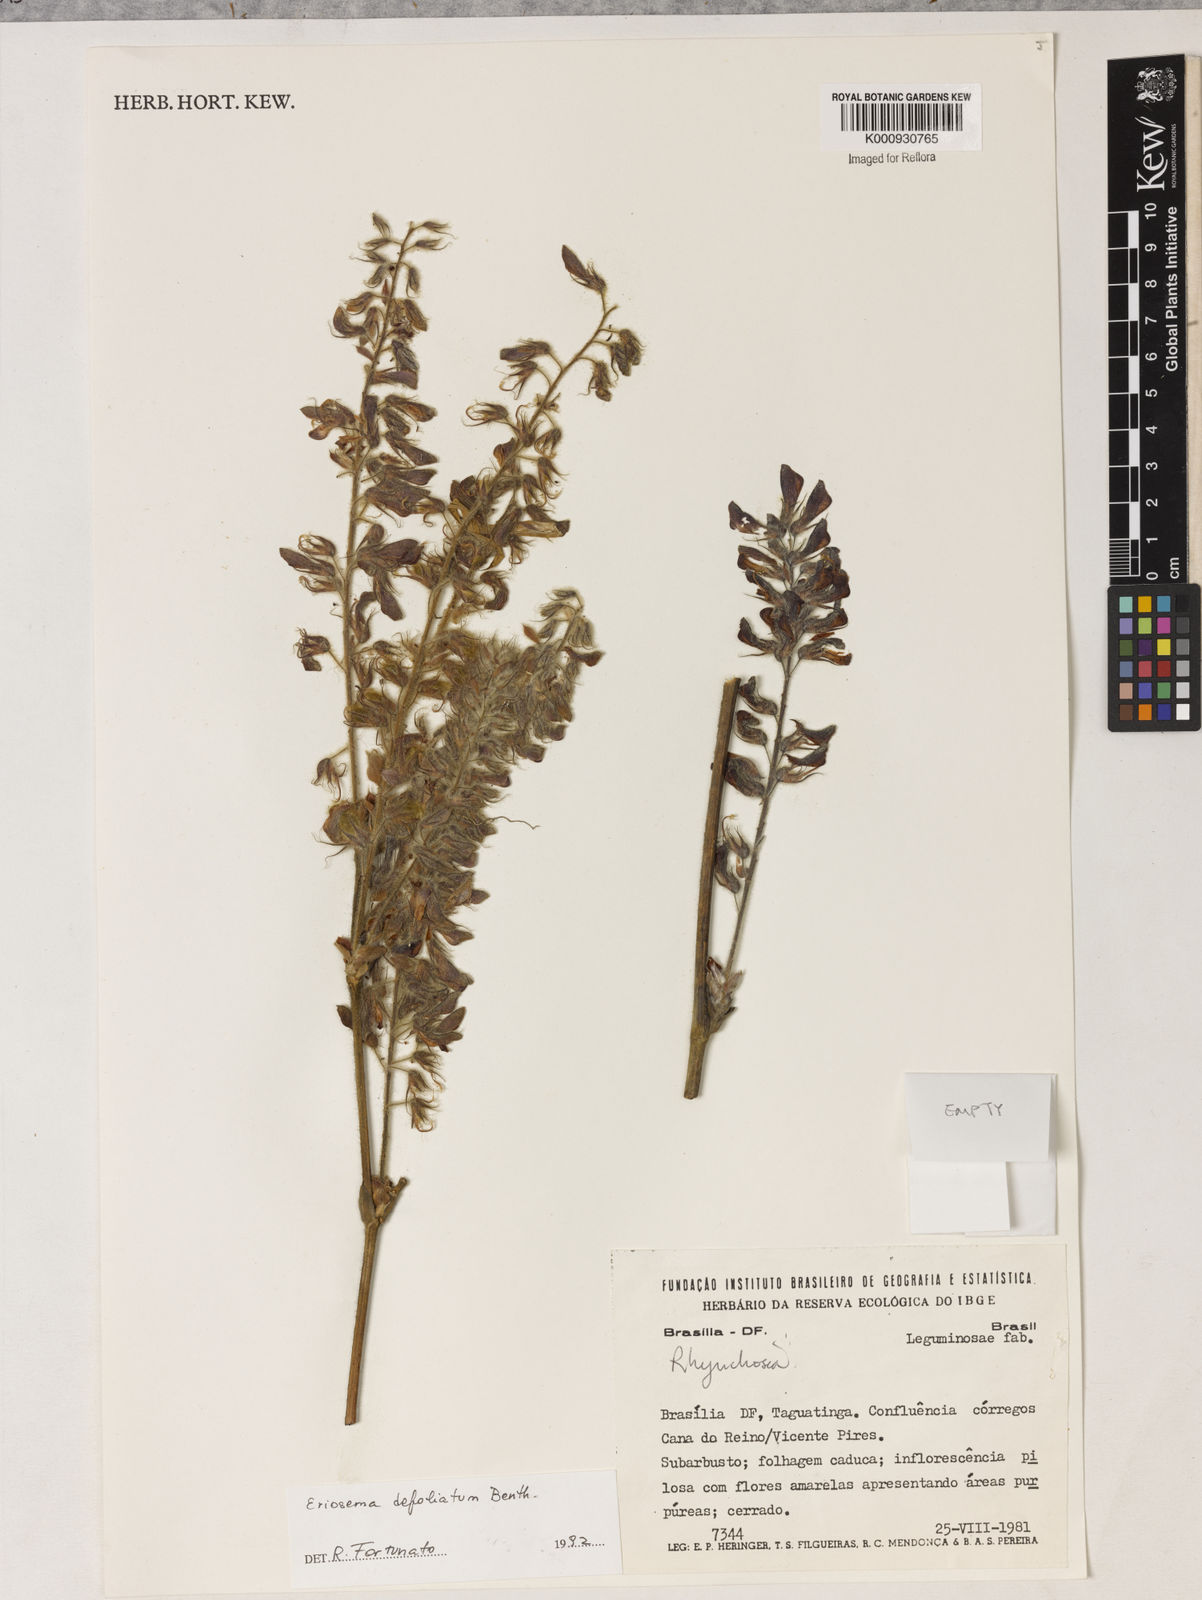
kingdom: Plantae
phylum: Tracheophyta
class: Magnoliopsida
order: Fabales
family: Fabaceae
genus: Eriosema
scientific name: Eriosema defoliatum
